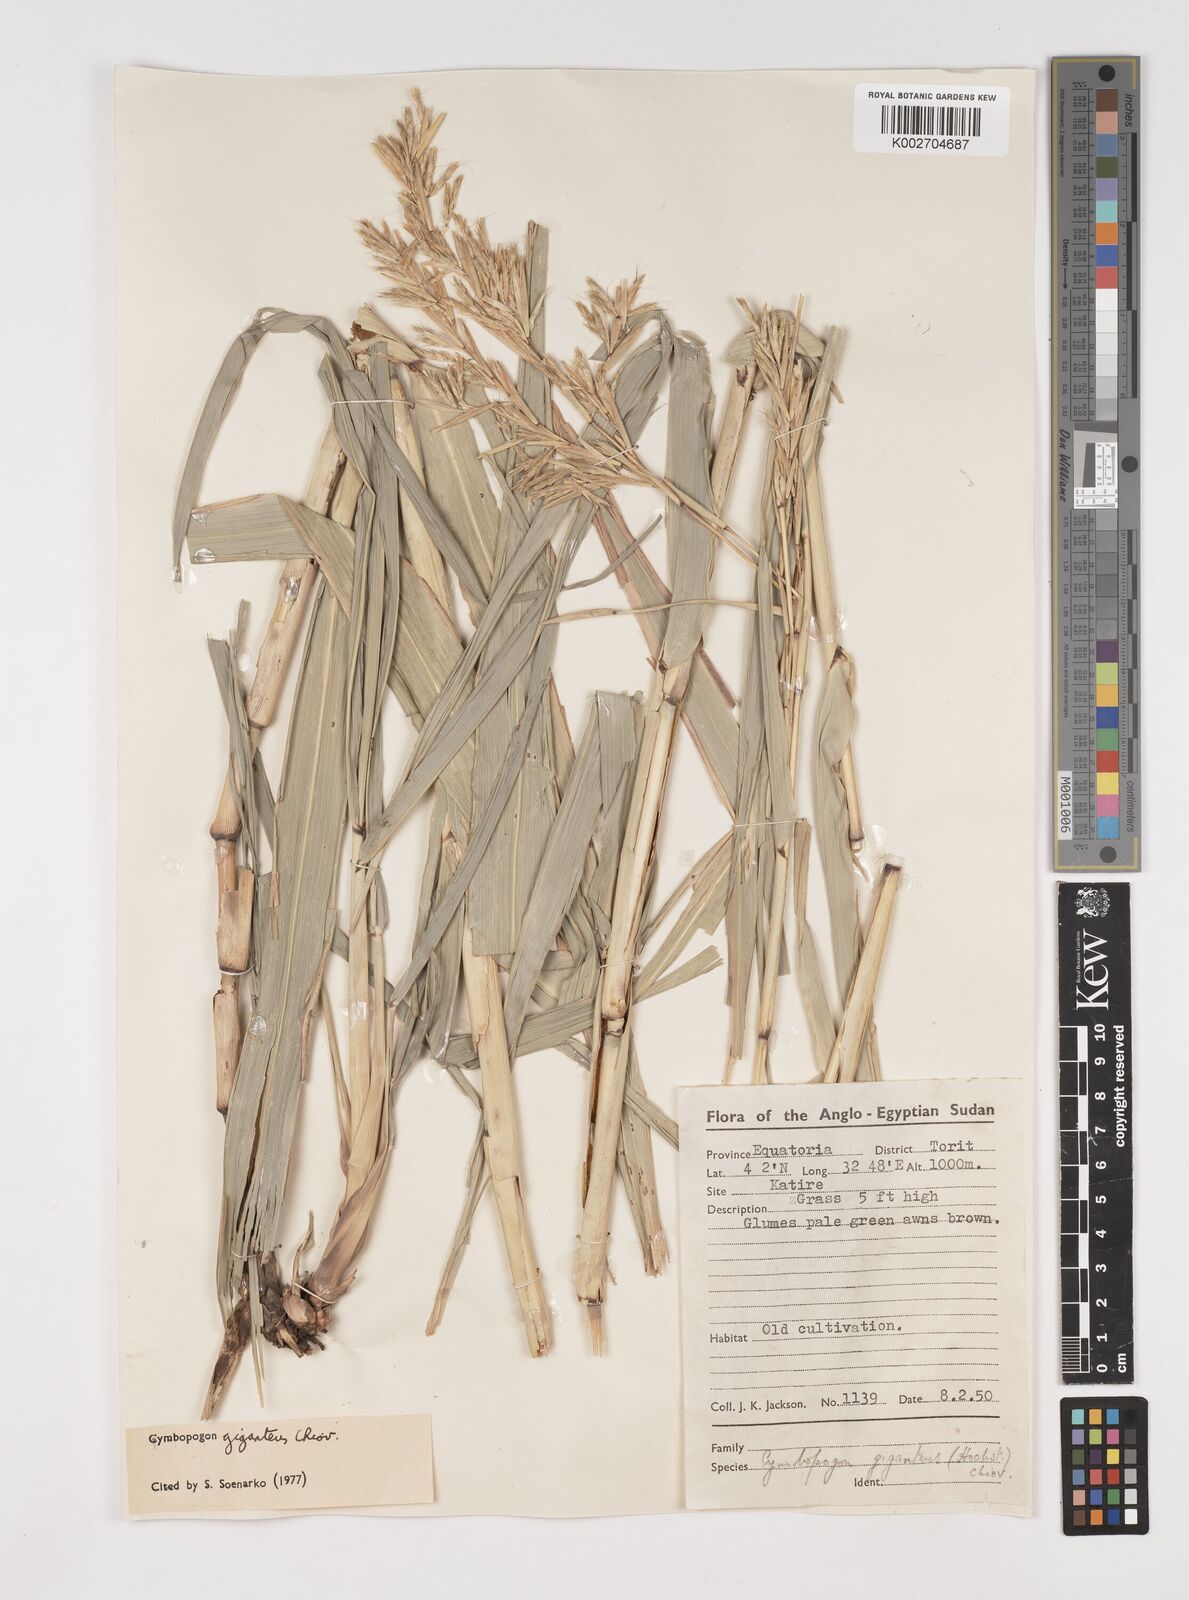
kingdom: Plantae
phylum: Tracheophyta
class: Liliopsida
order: Poales
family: Poaceae
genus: Cymbopogon
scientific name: Cymbopogon giganteus
